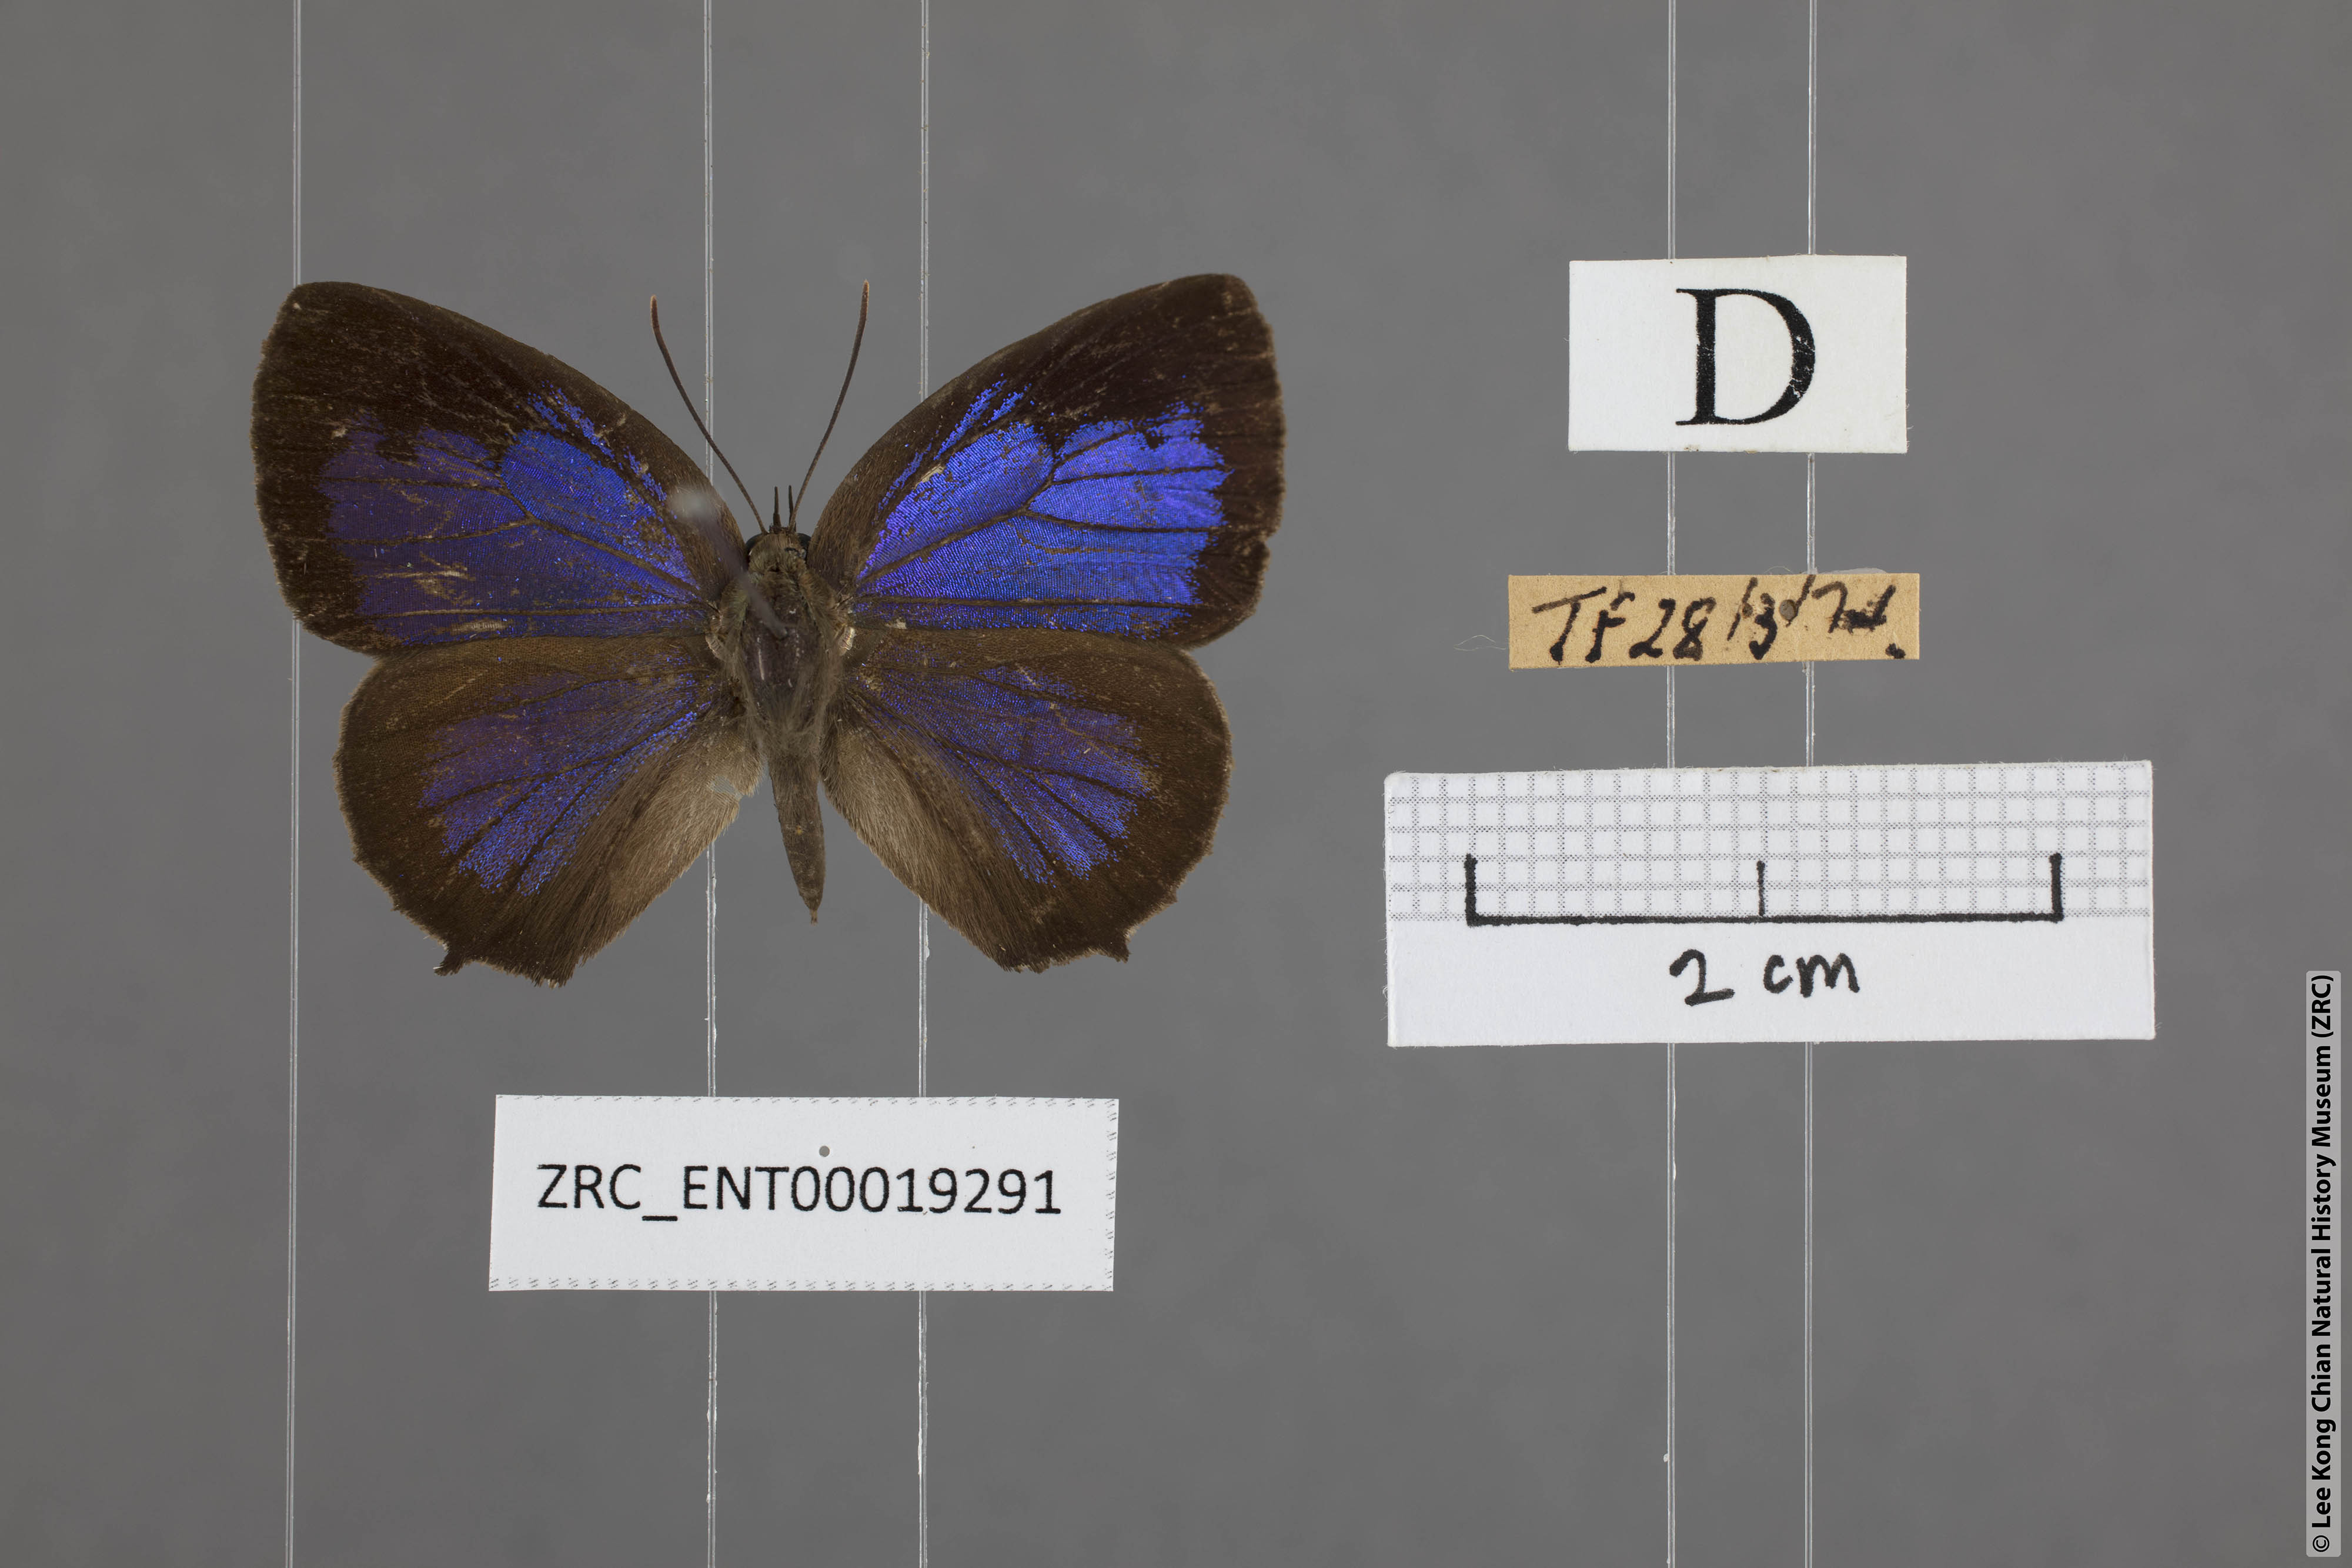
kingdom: Animalia
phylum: Arthropoda
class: Insecta
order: Lepidoptera
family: Lycaenidae
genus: Arhopala
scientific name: Arhopala aurea
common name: Long-celled oakblue
